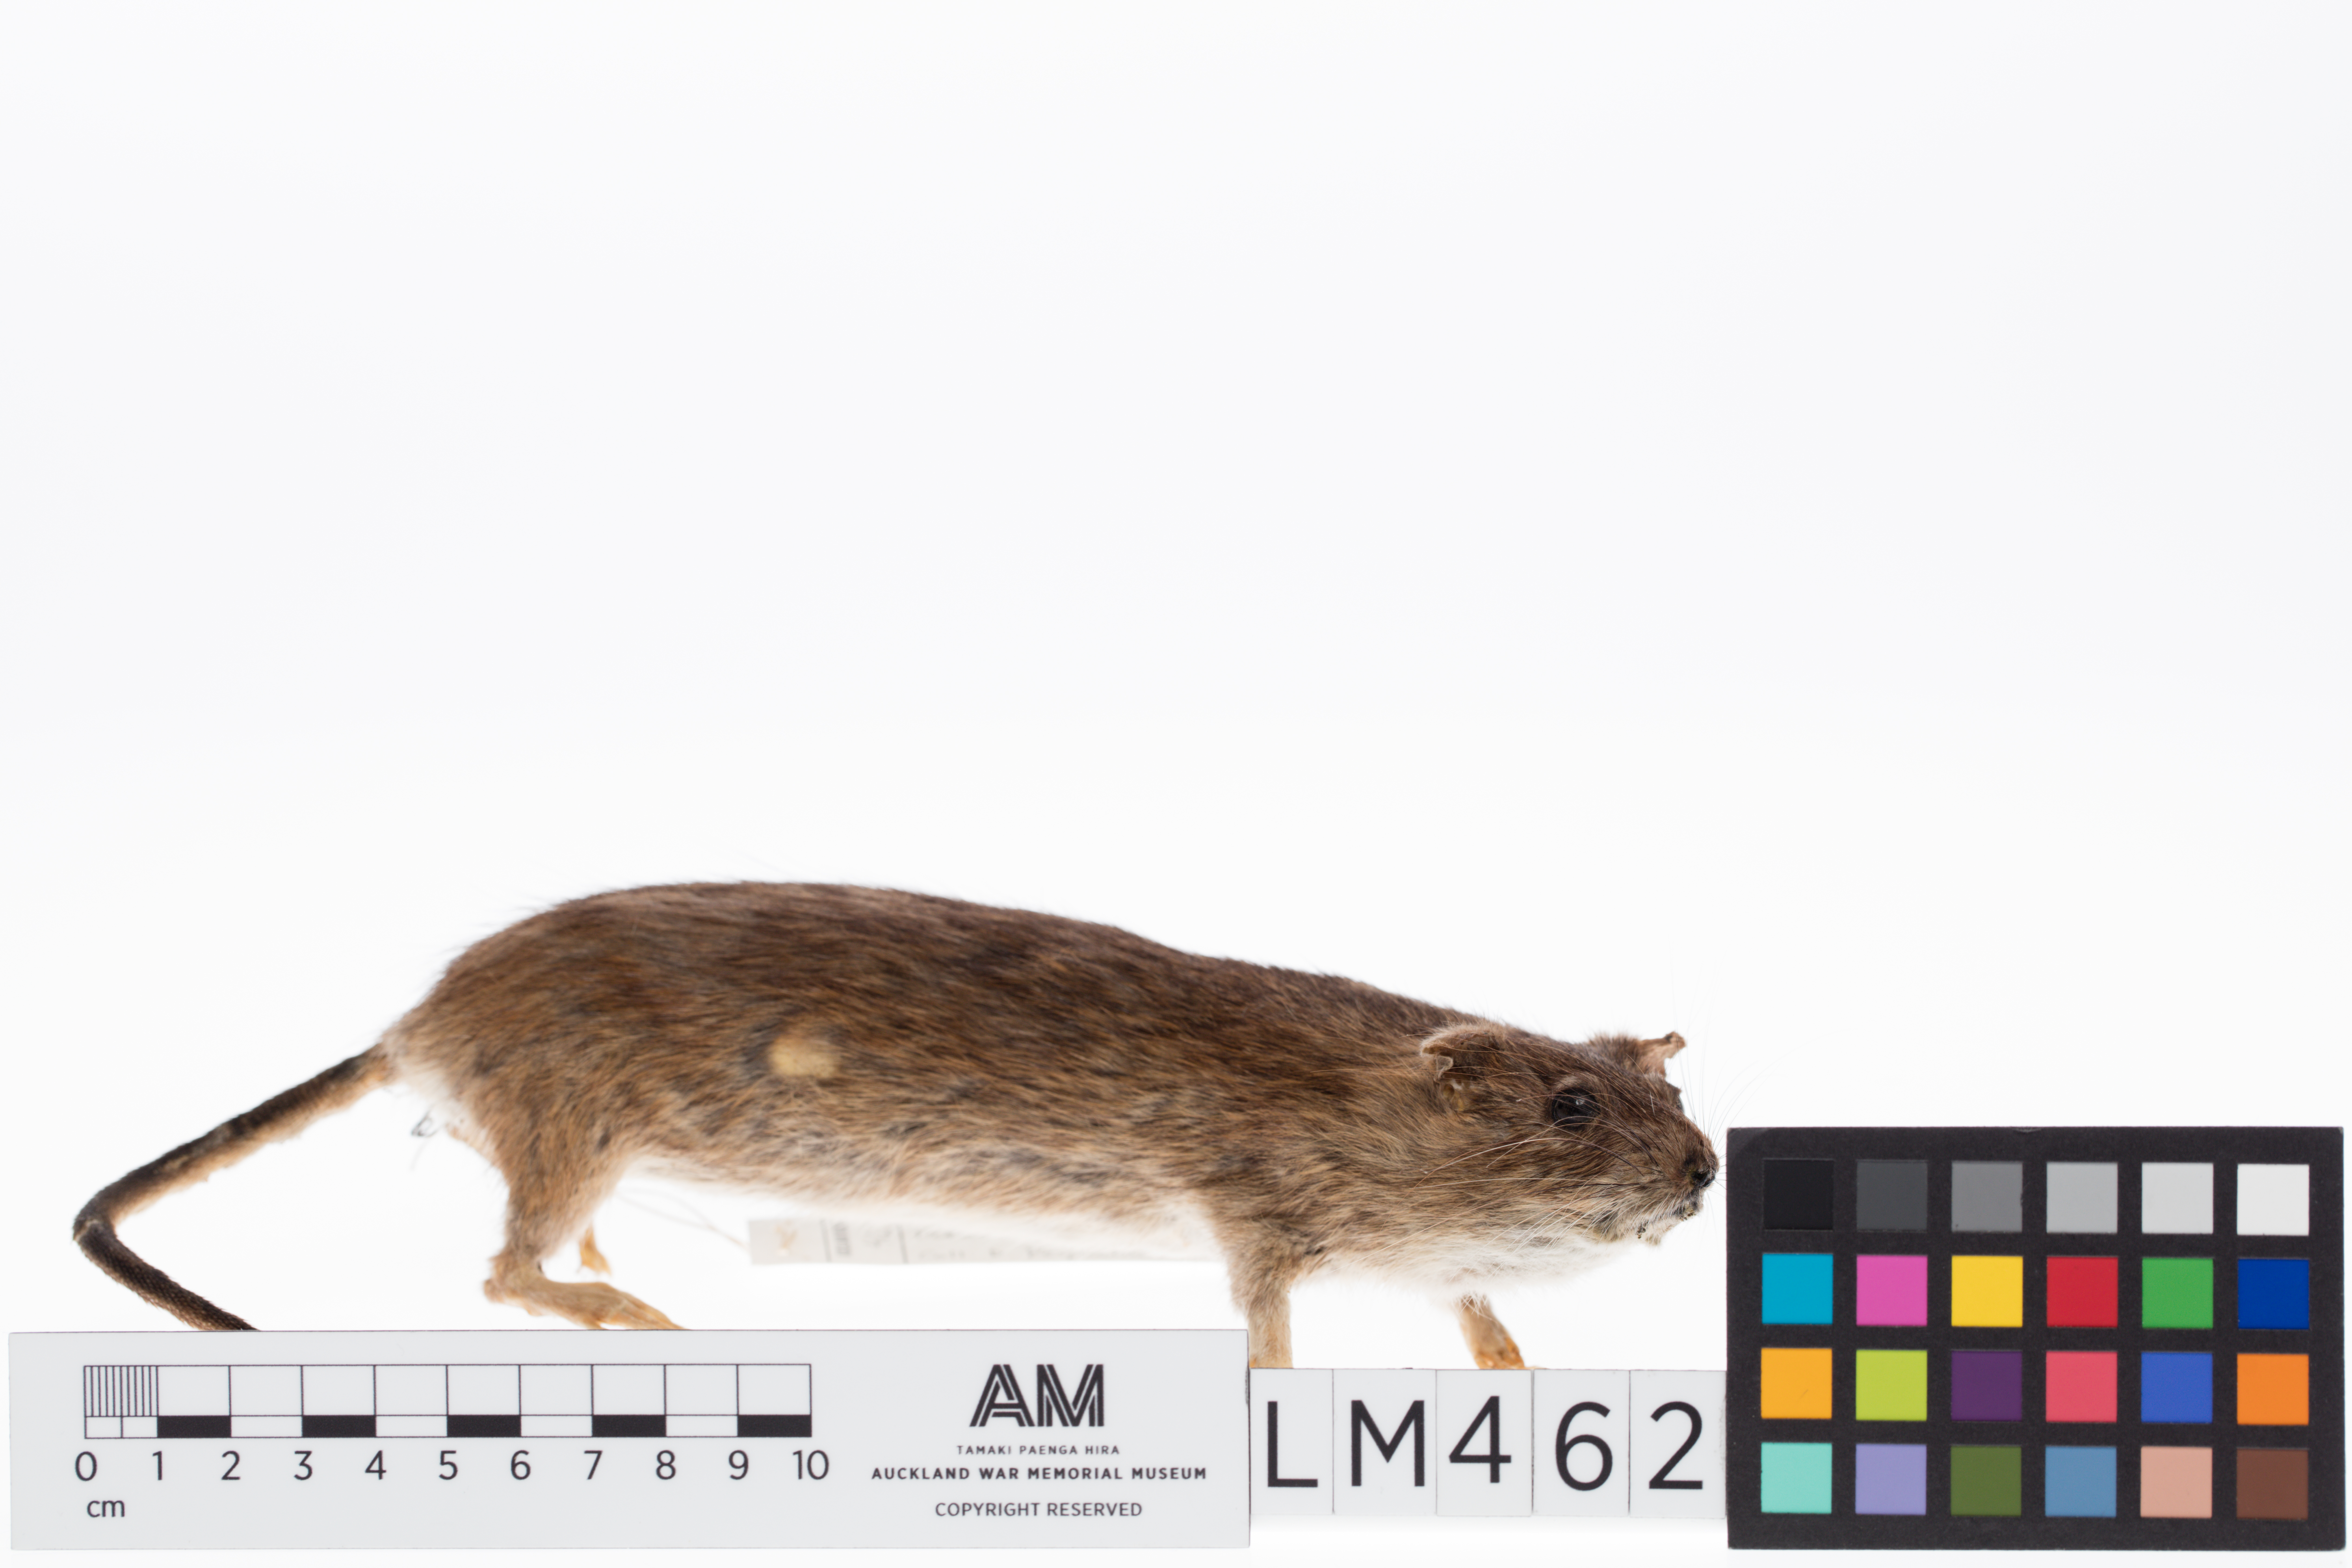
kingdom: Animalia
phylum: Chordata
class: Mammalia
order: Rodentia
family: Muridae
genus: Rattus
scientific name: Rattus norvegicus
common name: Brown rat
